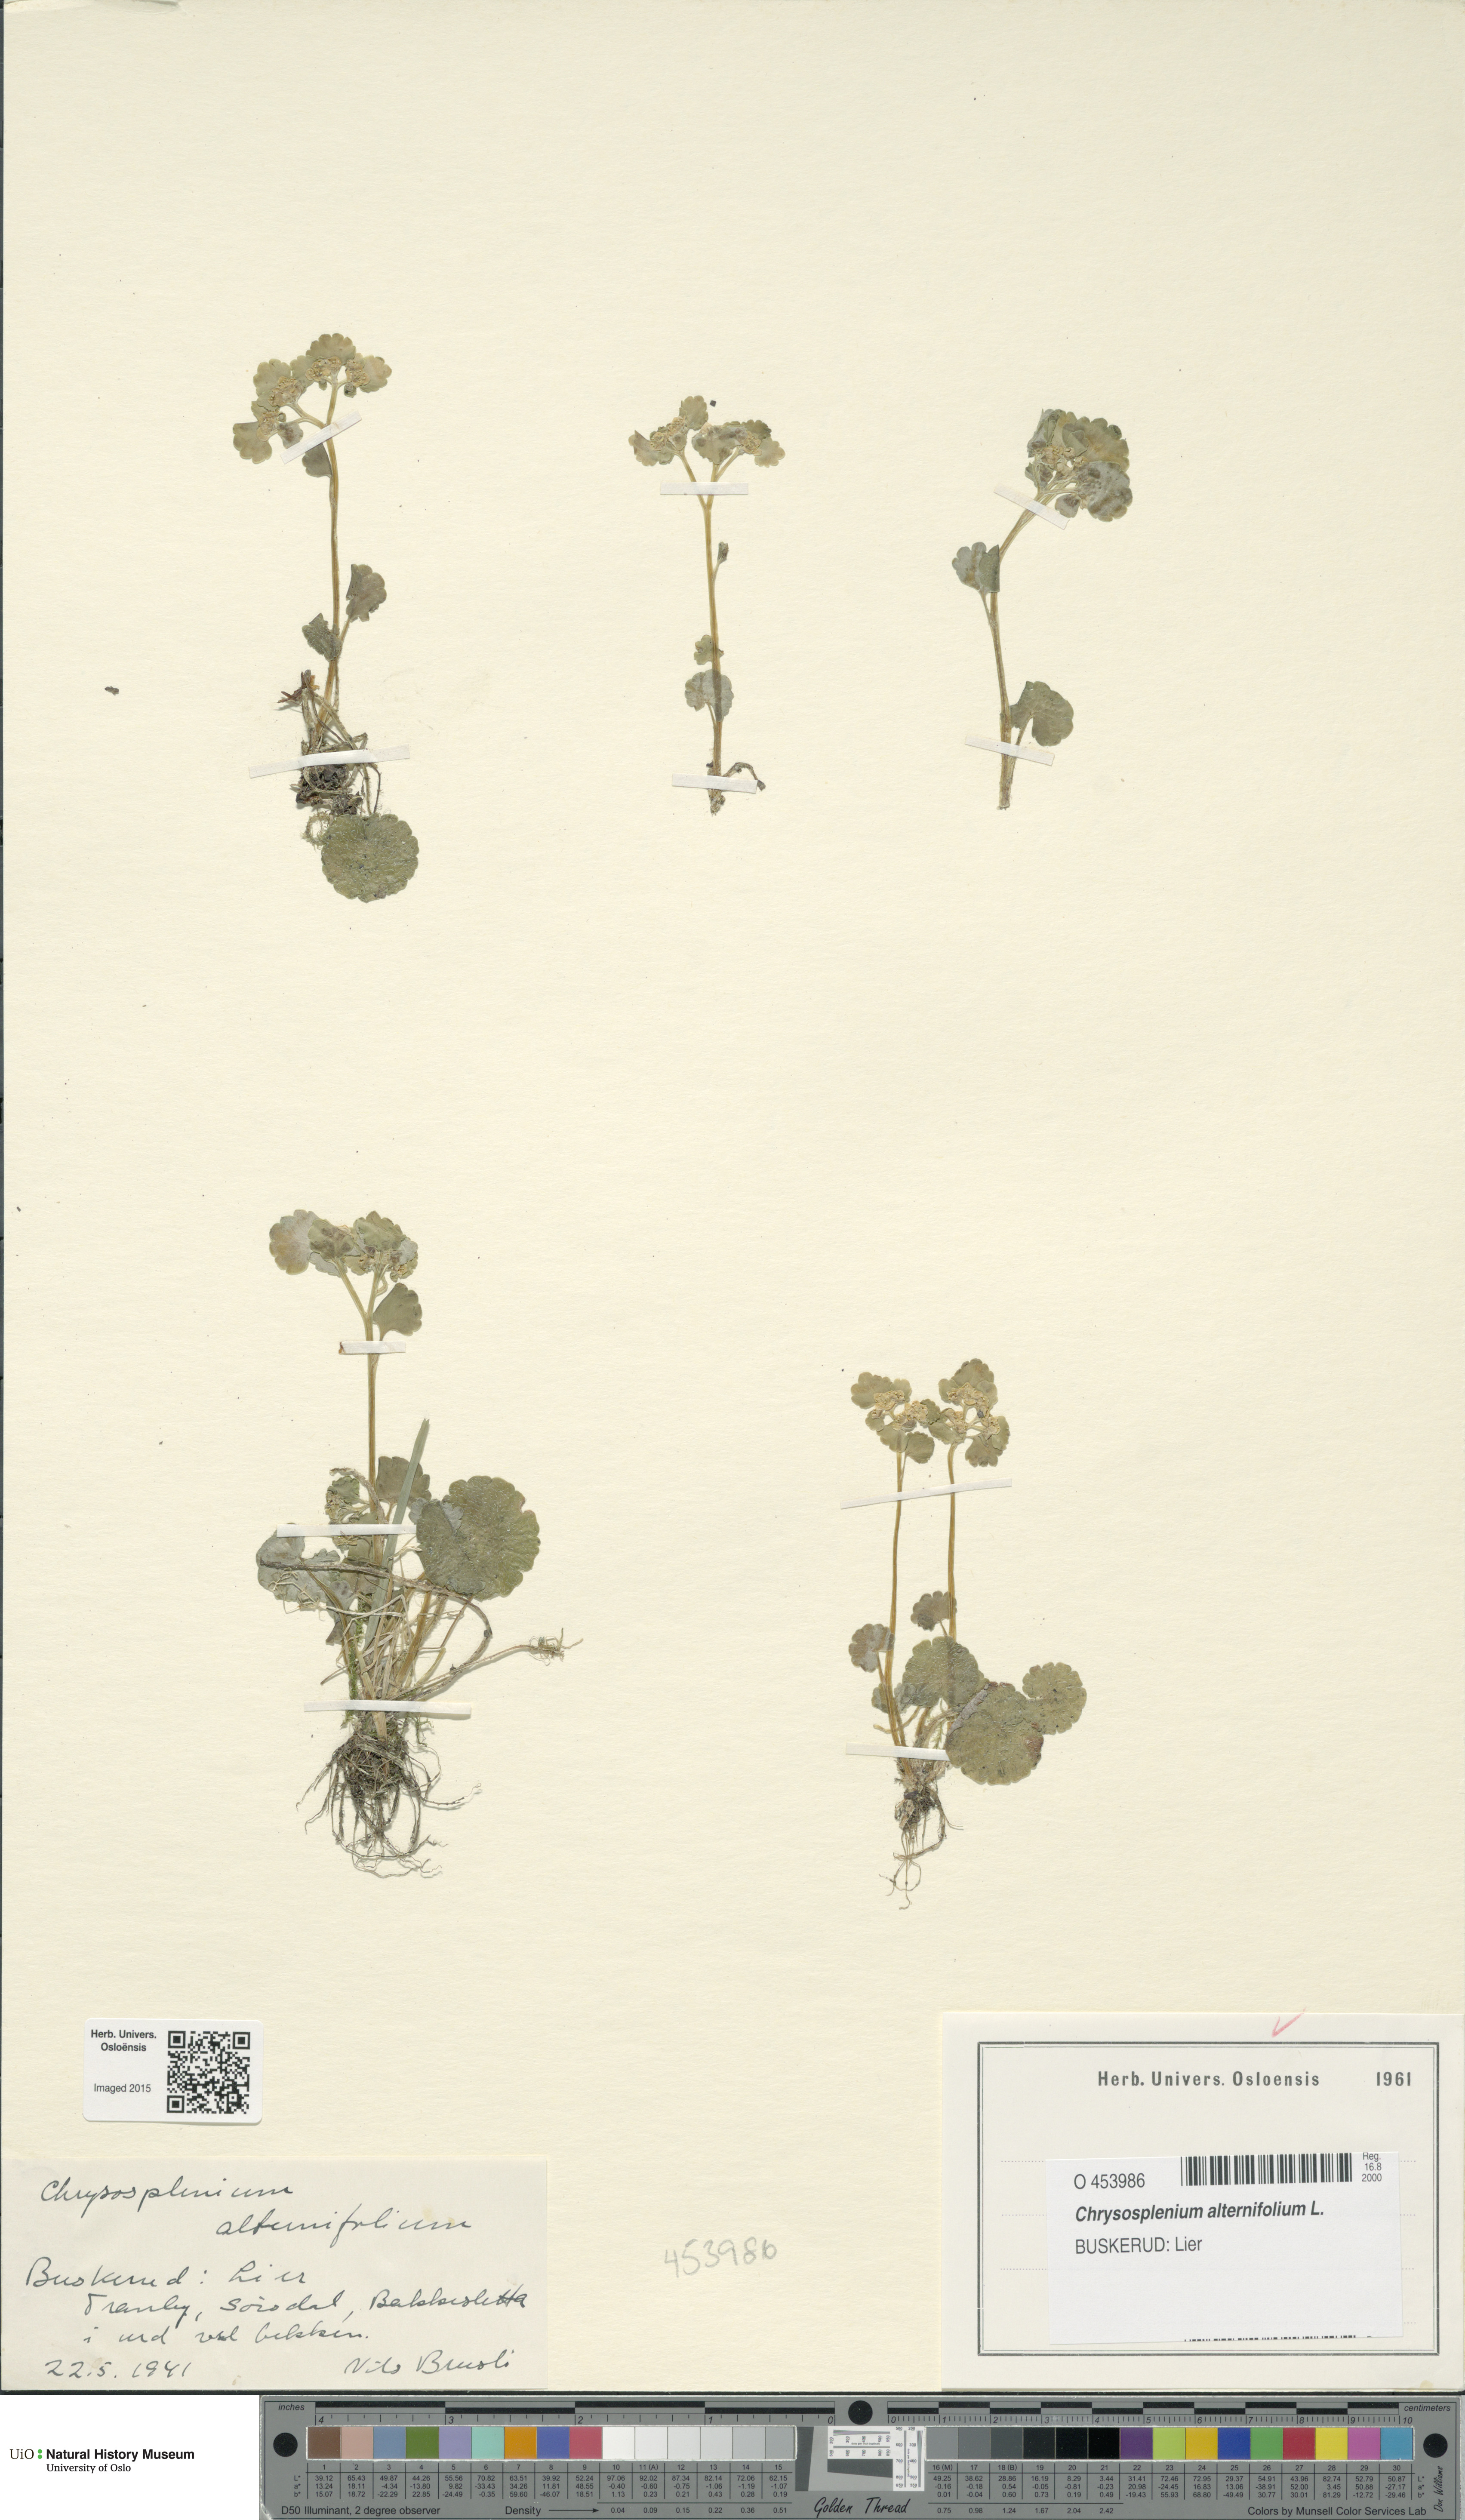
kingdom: Plantae
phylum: Tracheophyta
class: Magnoliopsida
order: Saxifragales
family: Saxifragaceae
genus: Chrysosplenium
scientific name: Chrysosplenium alternifolium
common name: Alternate-leaved golden-saxifrage
